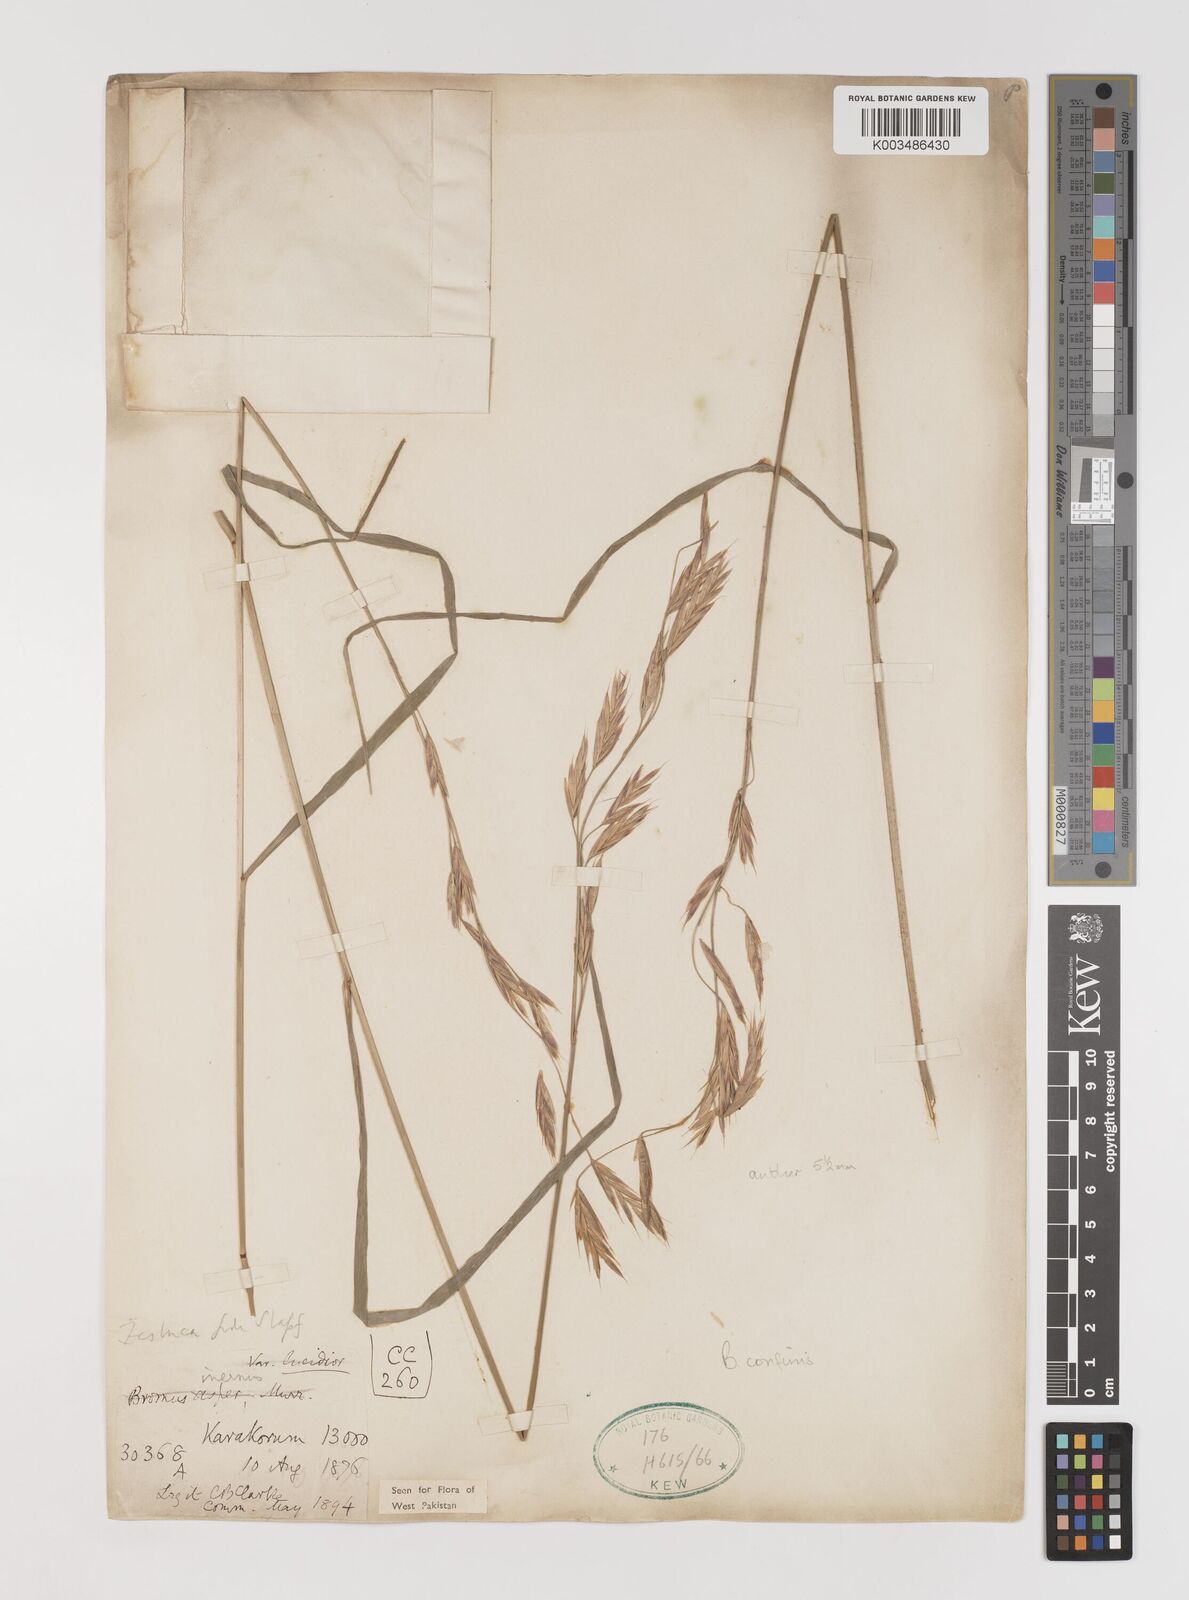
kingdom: Plantae
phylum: Tracheophyta
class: Liliopsida
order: Poales
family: Poaceae
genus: Bromus
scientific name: Bromus confinis
